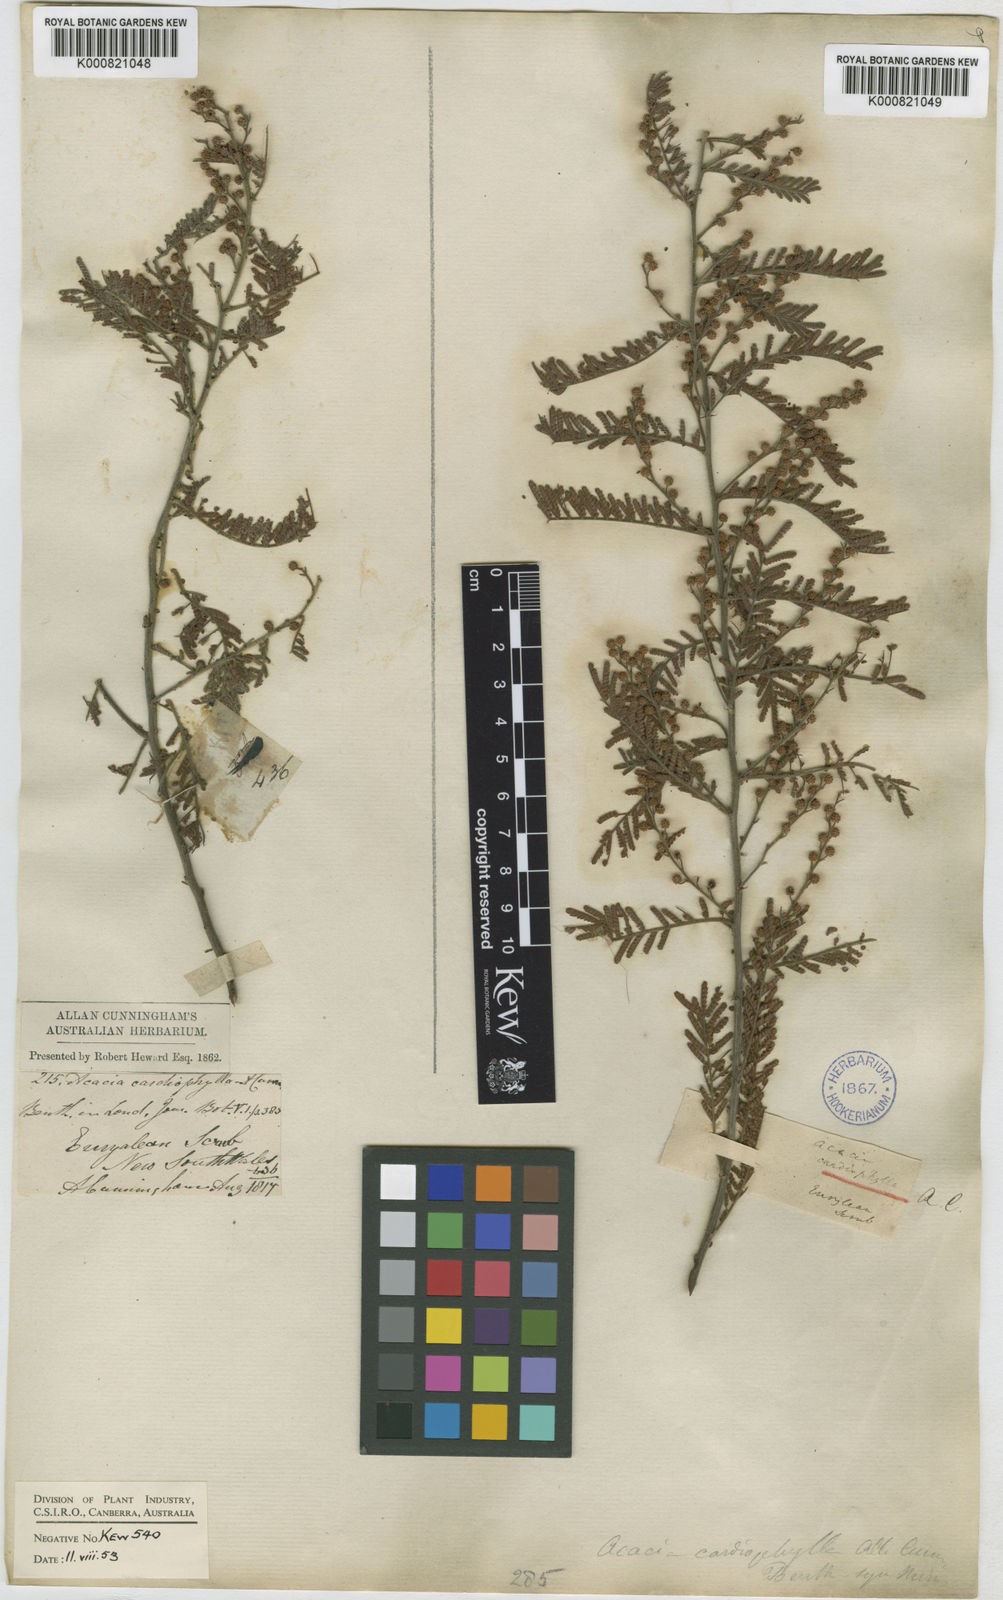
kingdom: Plantae
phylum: Tracheophyta
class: Magnoliopsida
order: Fabales
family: Fabaceae
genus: Acacia
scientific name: Acacia cardiophylla
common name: Wyalong wattle
